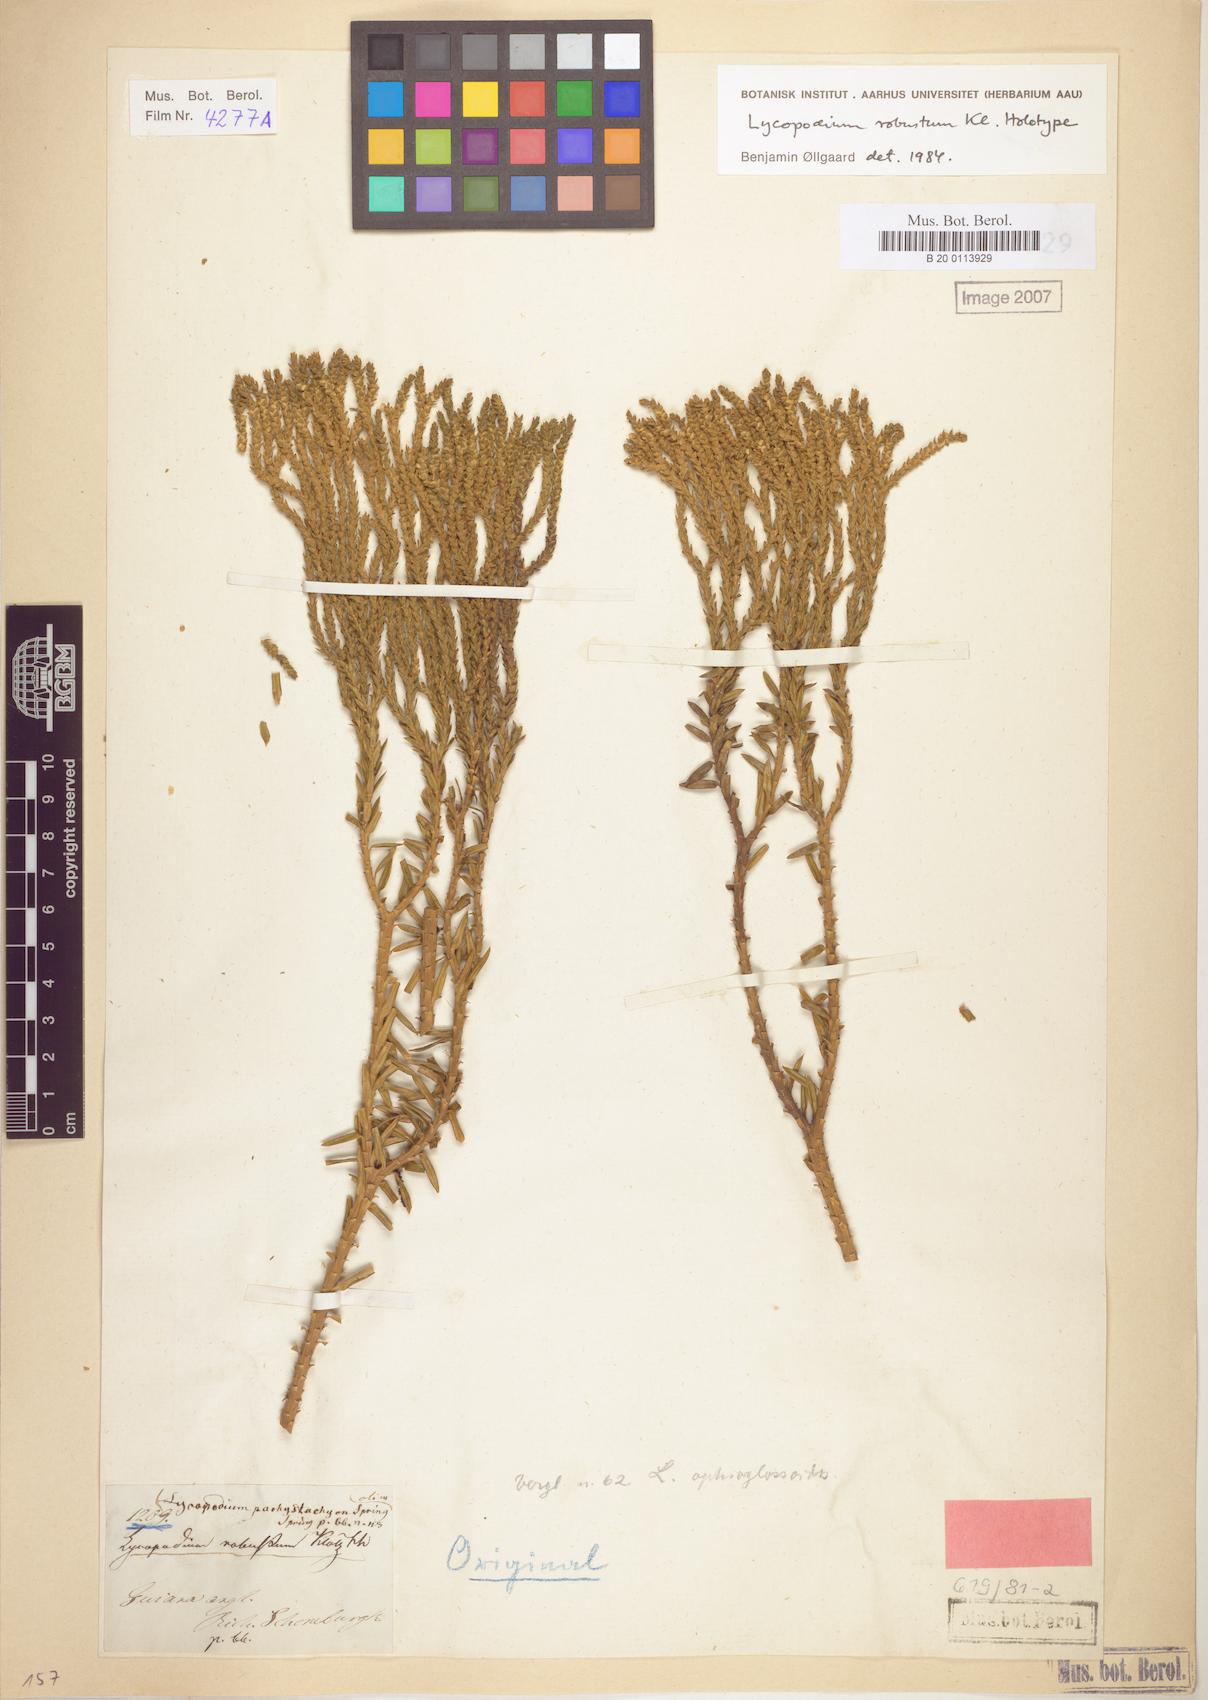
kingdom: Plantae
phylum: Tracheophyta
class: Lycopodiopsida
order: Lycopodiales
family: Lycopodiaceae
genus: Phlegmariurus
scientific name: Phlegmariurus robustus
